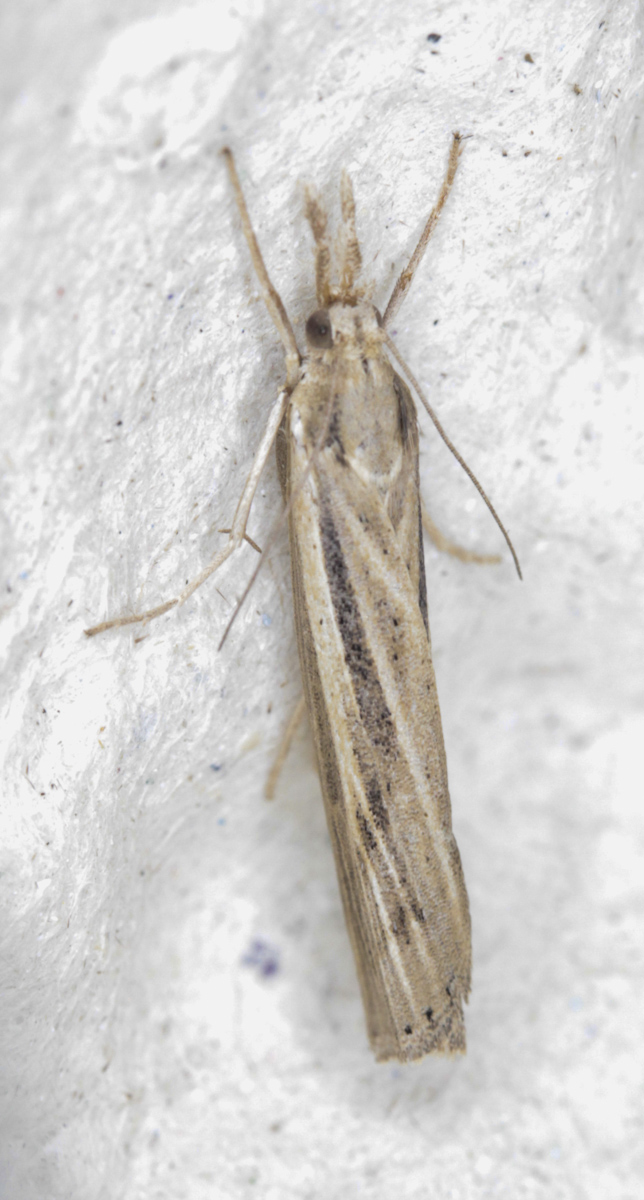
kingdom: Animalia
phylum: Arthropoda
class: Insecta
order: Lepidoptera
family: Crambidae
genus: Agriphila
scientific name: Agriphila
